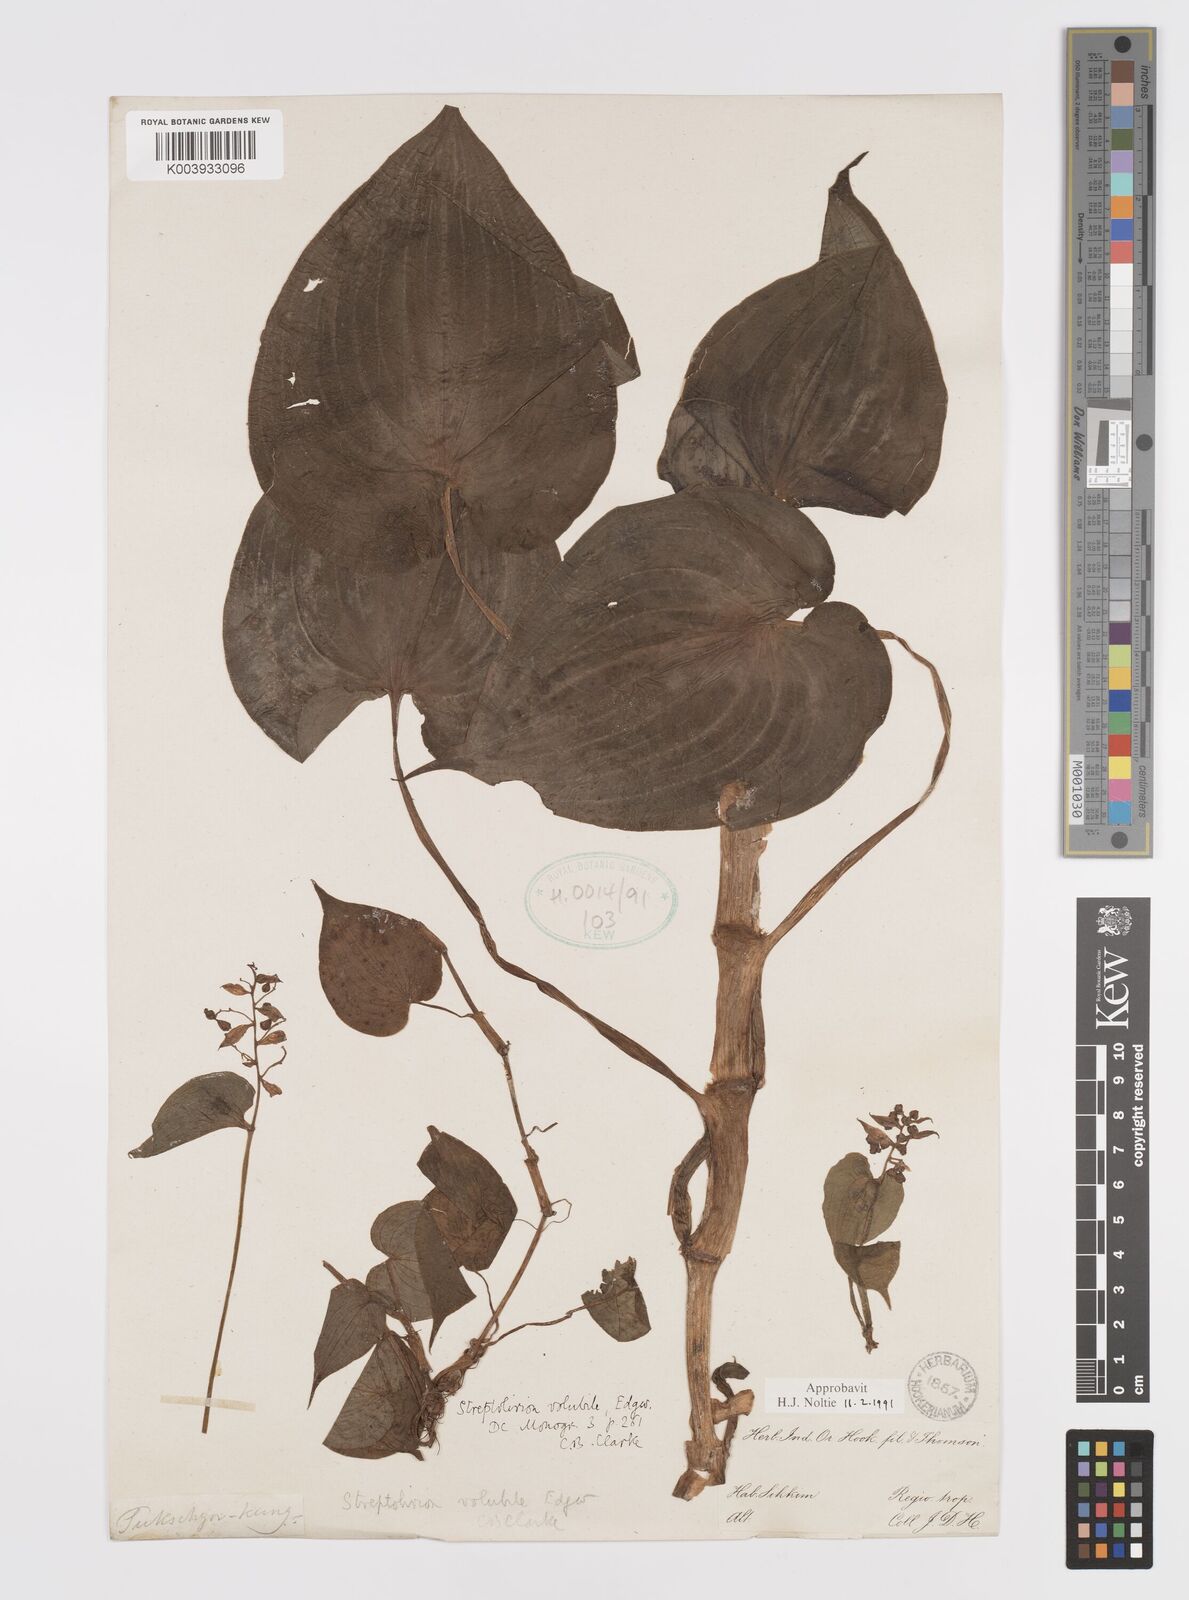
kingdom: Plantae
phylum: Tracheophyta
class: Liliopsida
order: Commelinales
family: Commelinaceae
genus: Streptolirion
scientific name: Streptolirion volubile
